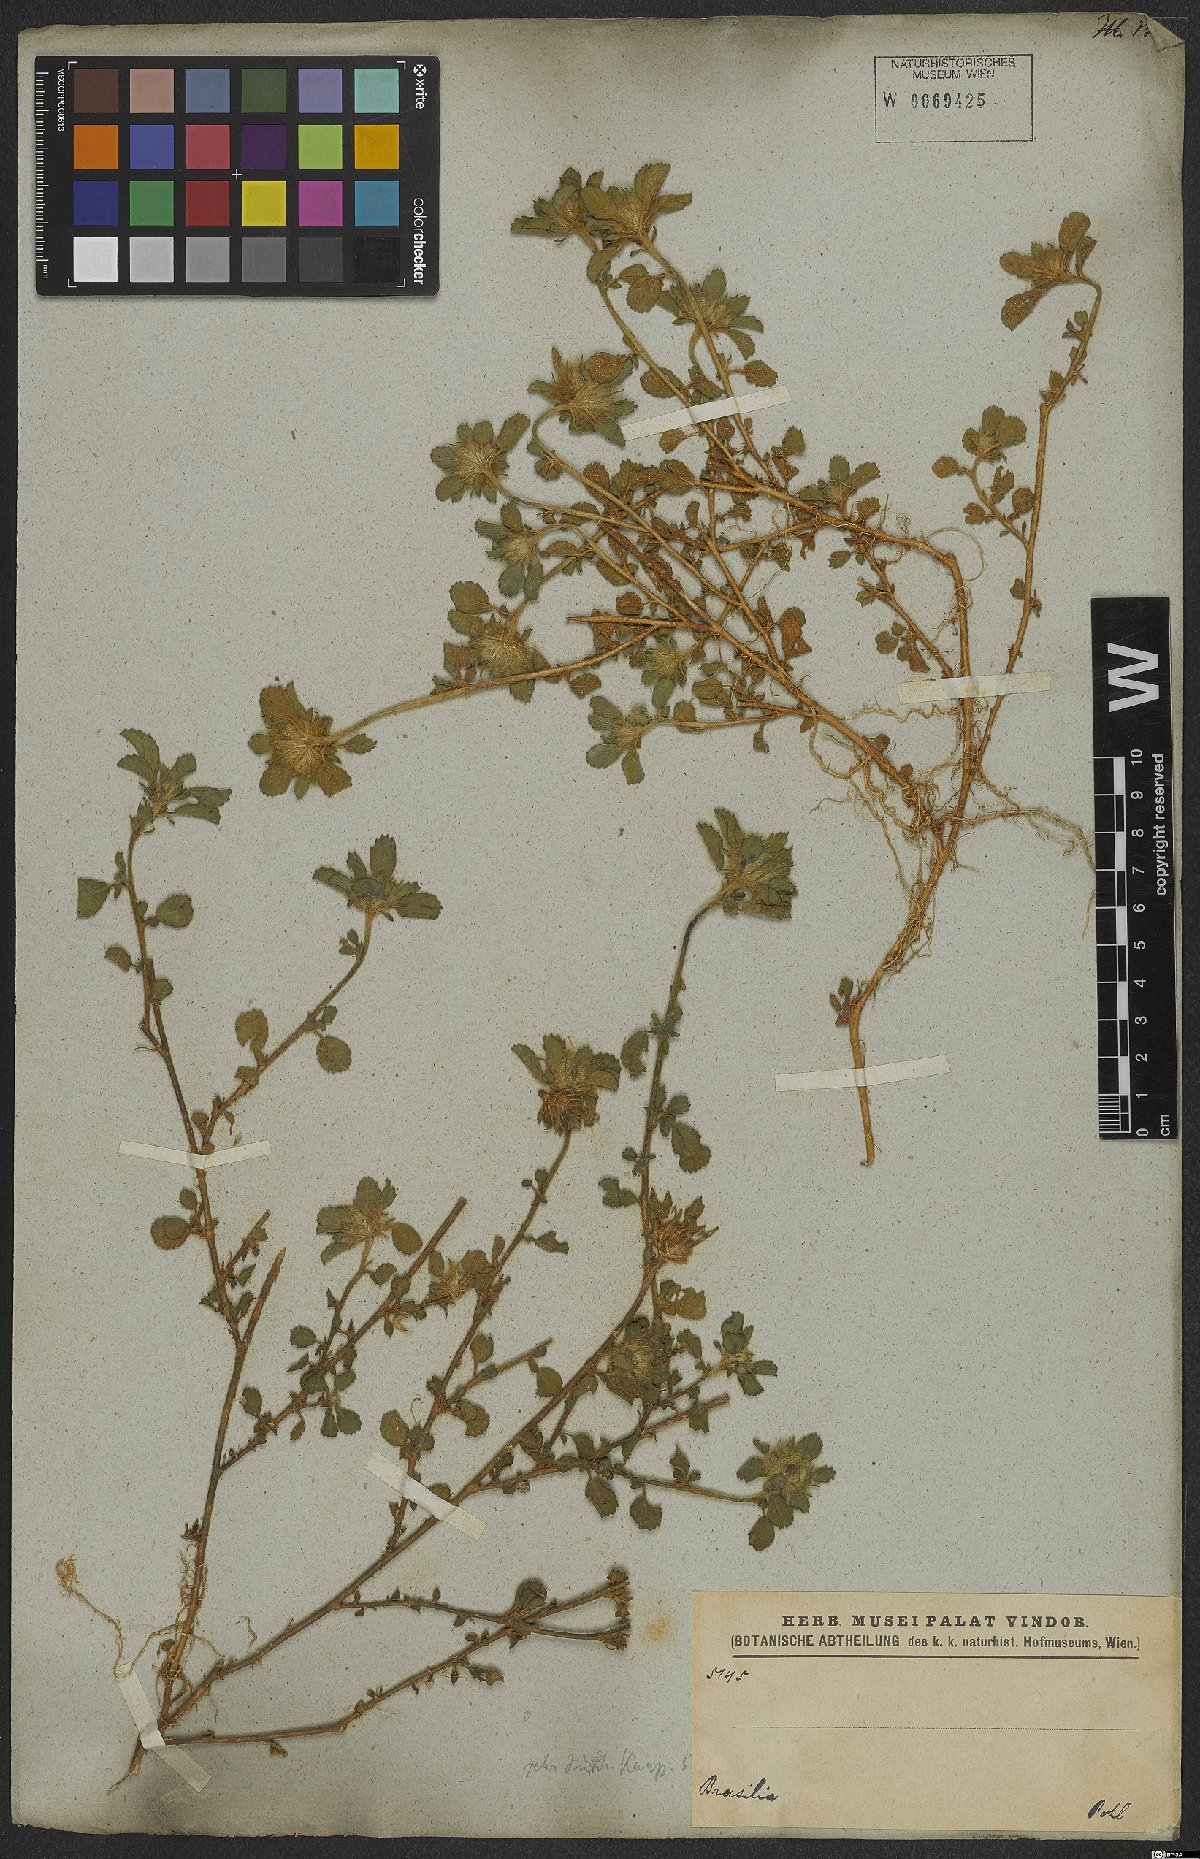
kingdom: Plantae
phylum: Tracheophyta
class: Magnoliopsida
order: Malvales
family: Malvaceae
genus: Sida
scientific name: Sida ciliaris
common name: Bracted fanpetals
